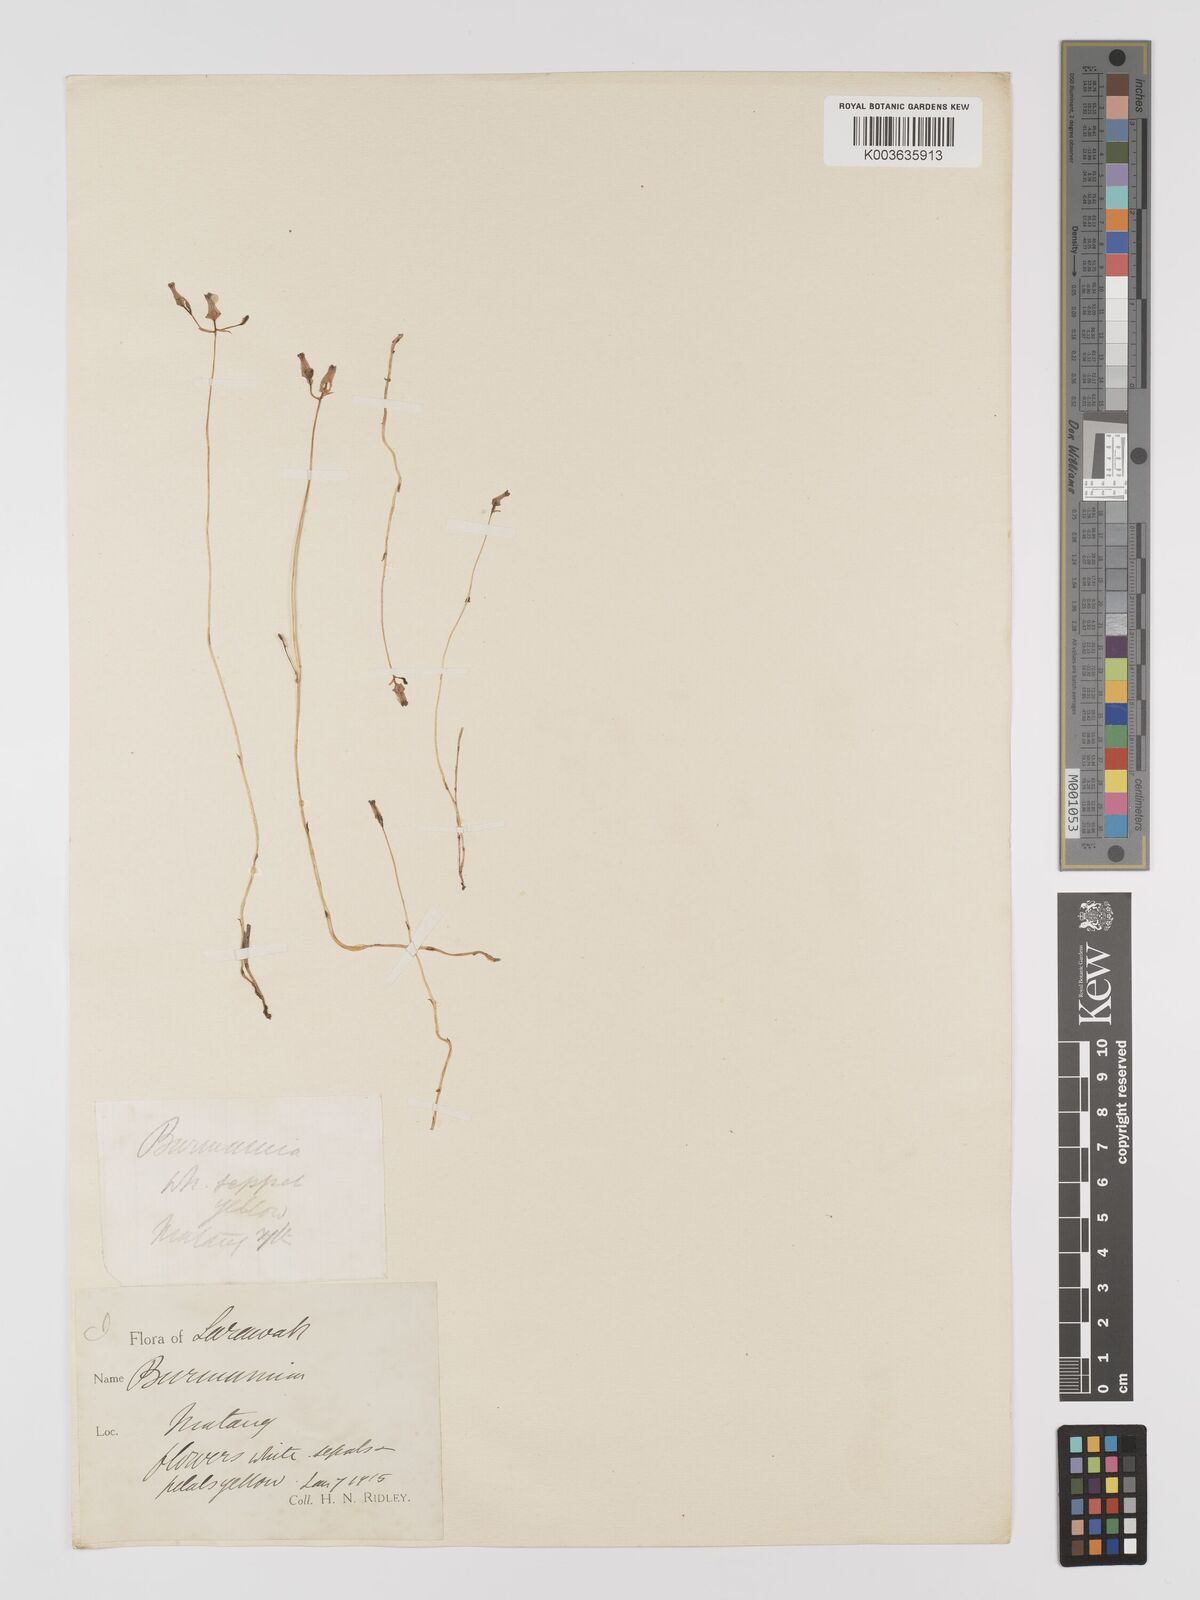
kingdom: Plantae
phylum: Tracheophyta
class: Liliopsida
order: Dioscoreales
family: Burmanniaceae
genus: Burmannia
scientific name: Burmannia lutescens
